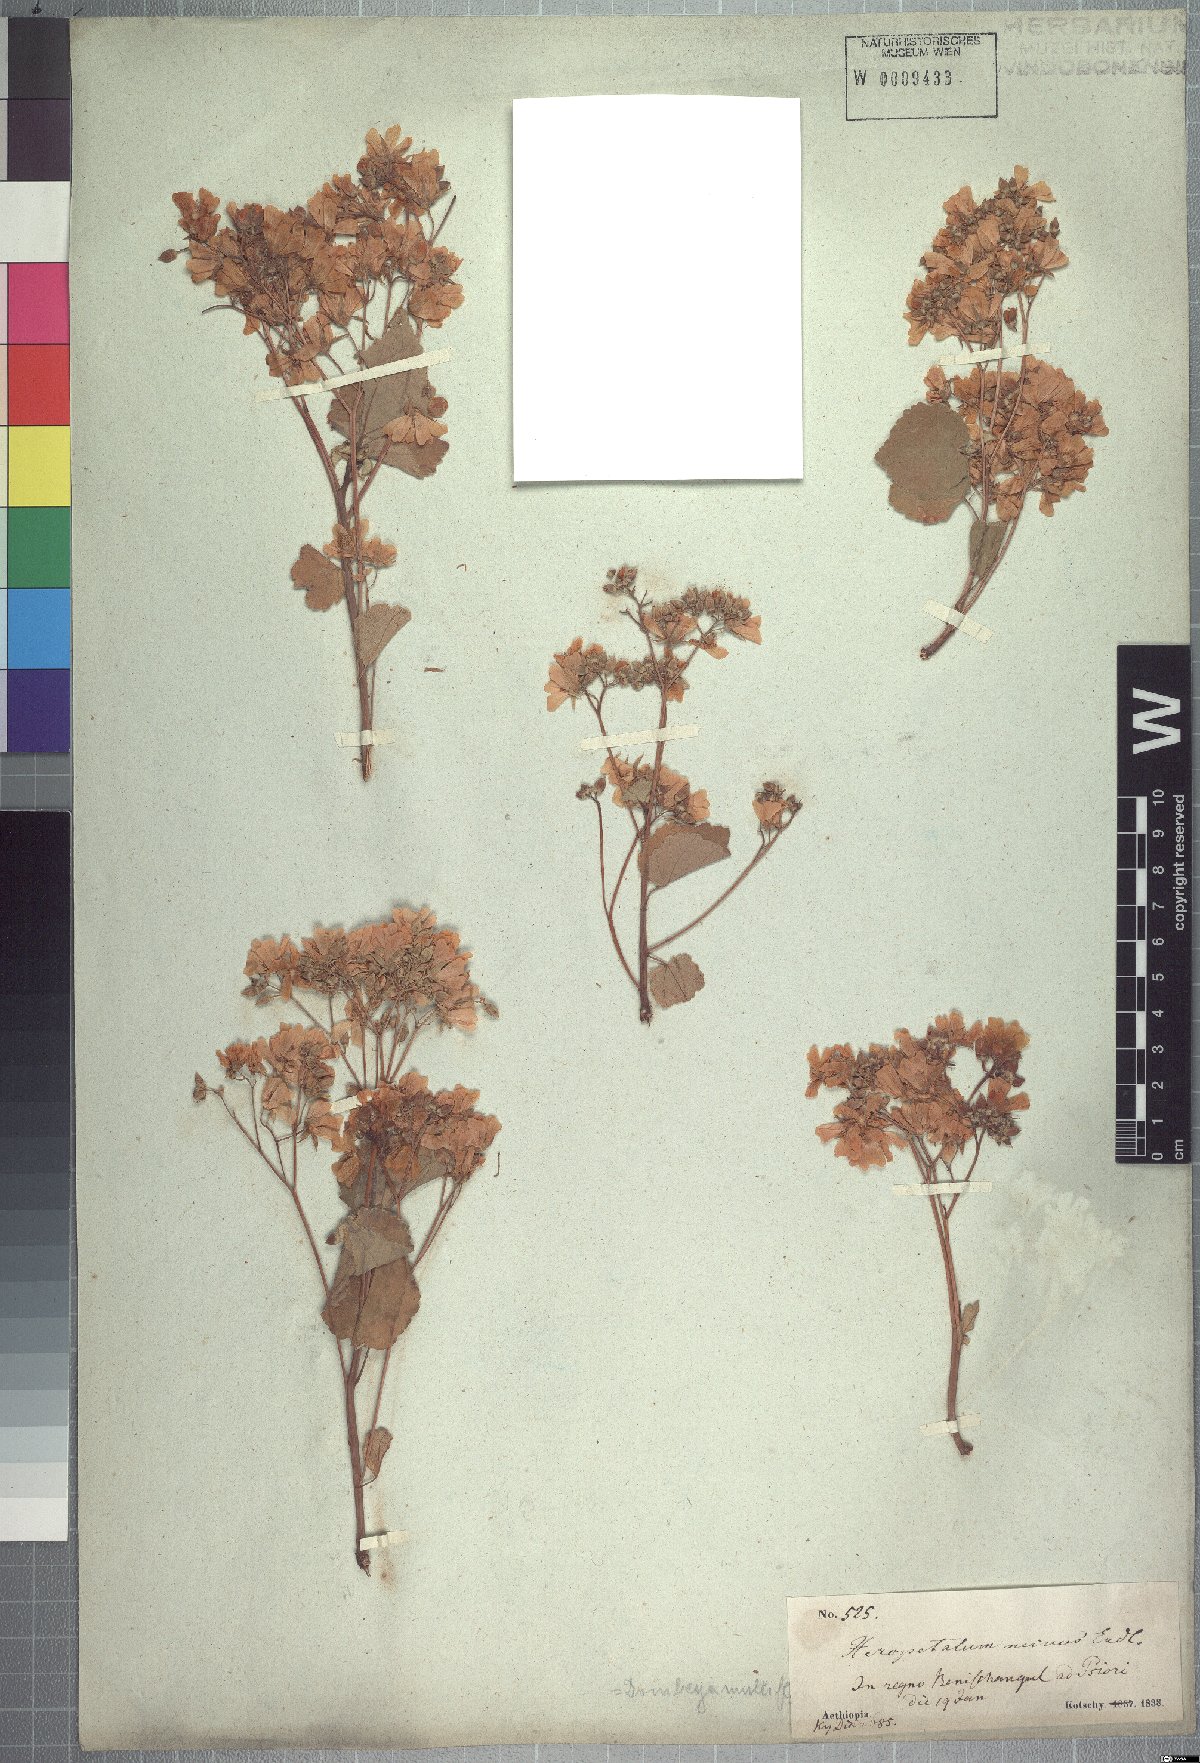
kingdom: Plantae
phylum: Tracheophyta
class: Magnoliopsida
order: Malvales
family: Malvaceae
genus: Dombeya
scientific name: Dombeya quinqueseta
